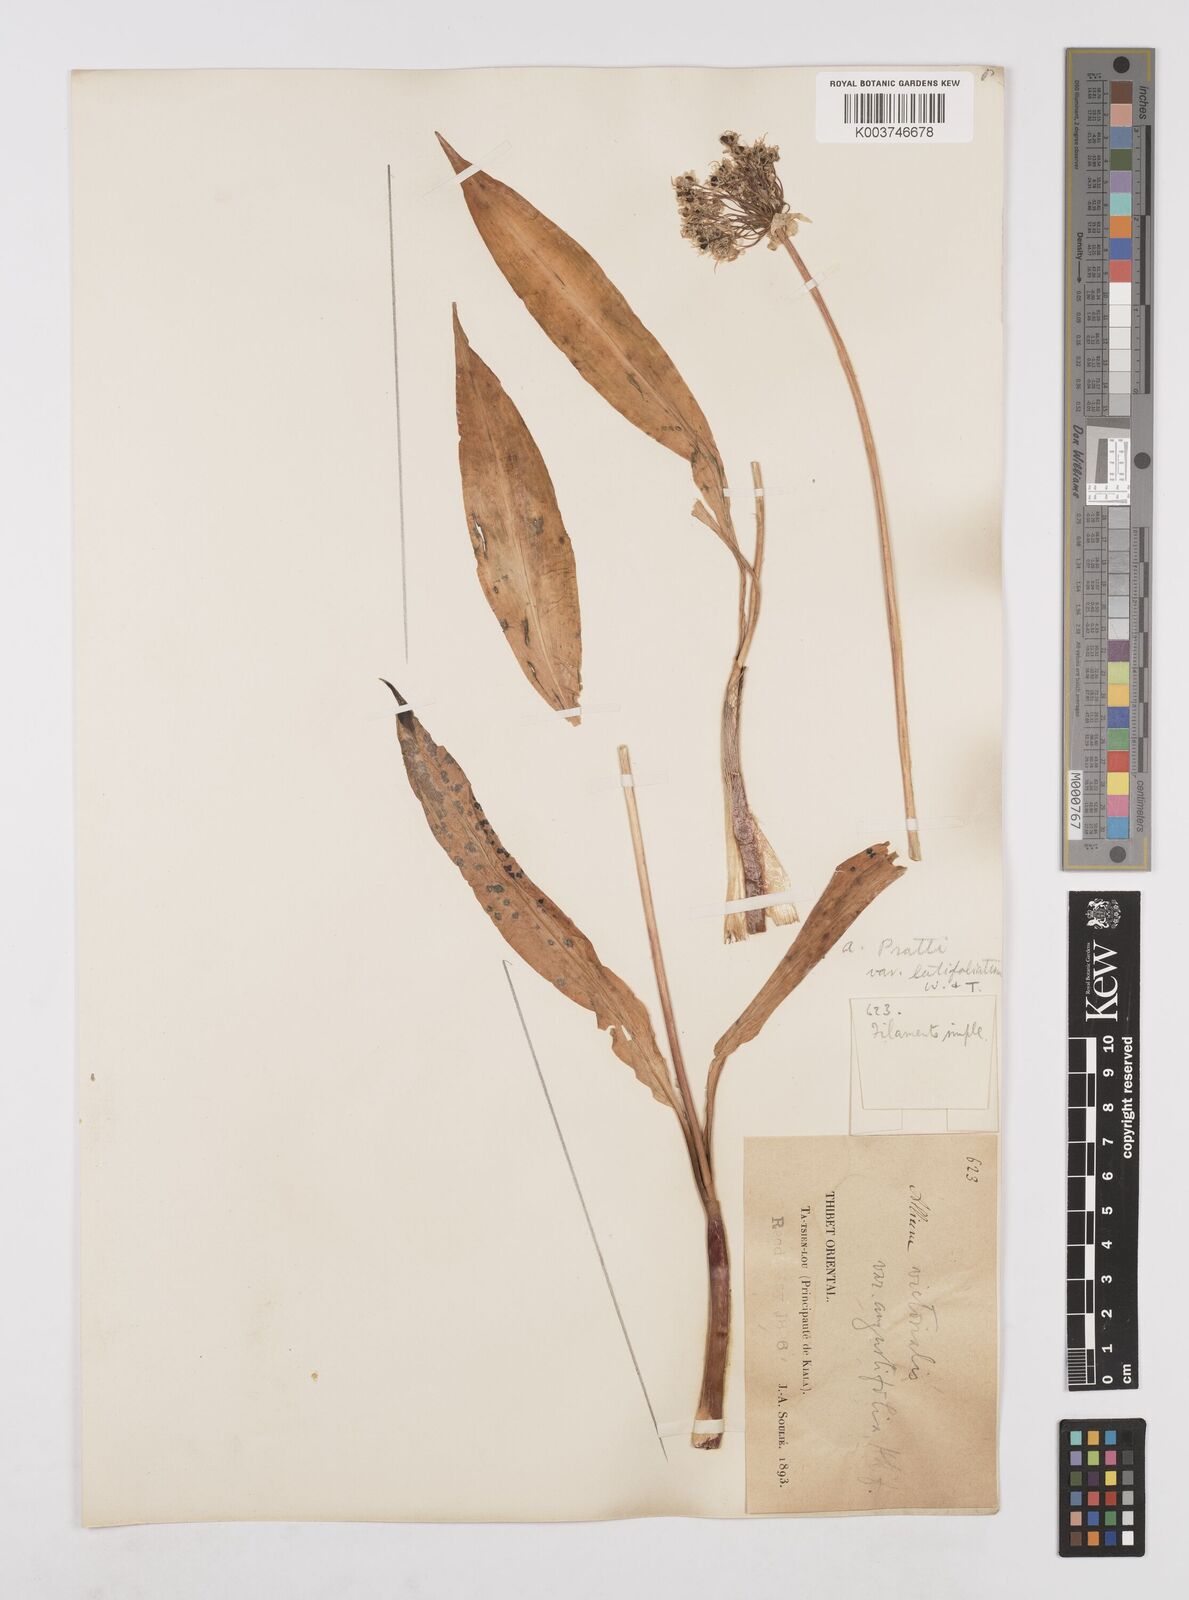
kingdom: Plantae
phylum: Tracheophyta
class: Liliopsida
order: Asparagales
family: Amaryllidaceae
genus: Allium
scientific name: Allium prattii
